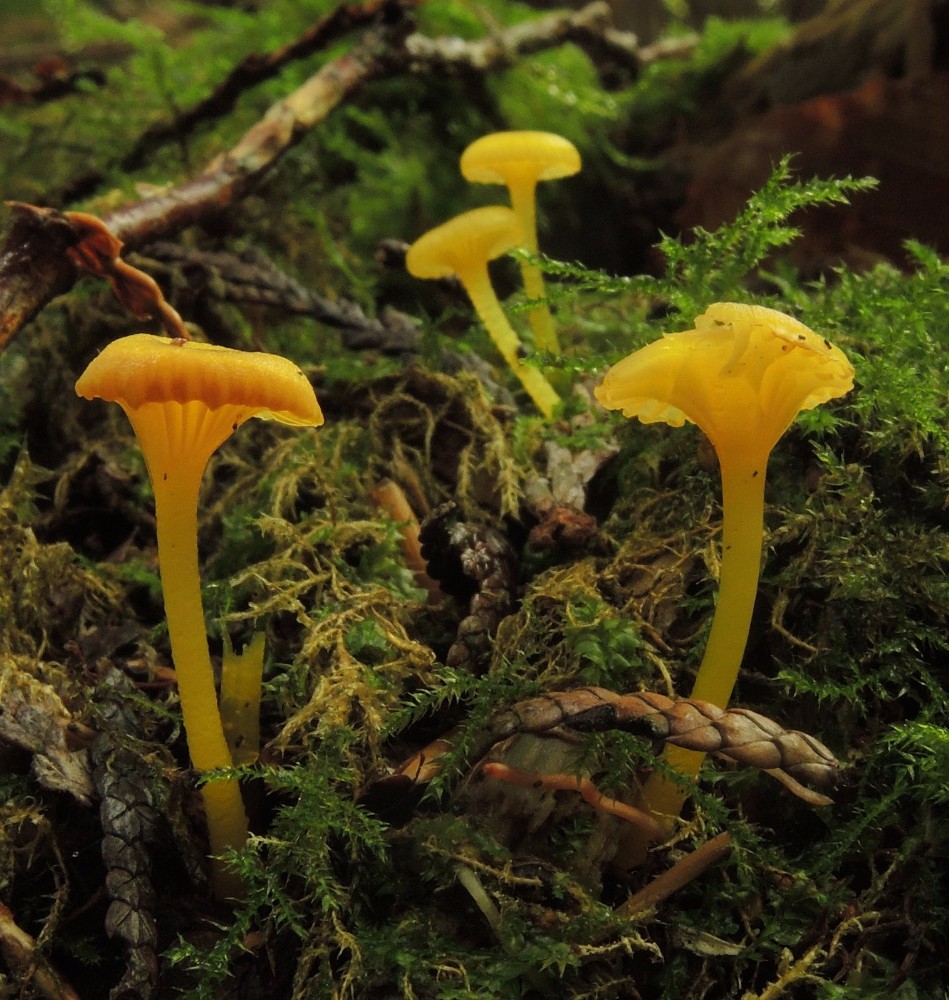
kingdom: Fungi
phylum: Basidiomycota
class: Agaricomycetes
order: Agaricales
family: Hygrophoraceae
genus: Gloioxanthomyces
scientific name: Gloioxanthomyces vitellinus
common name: kromgul vokshat
